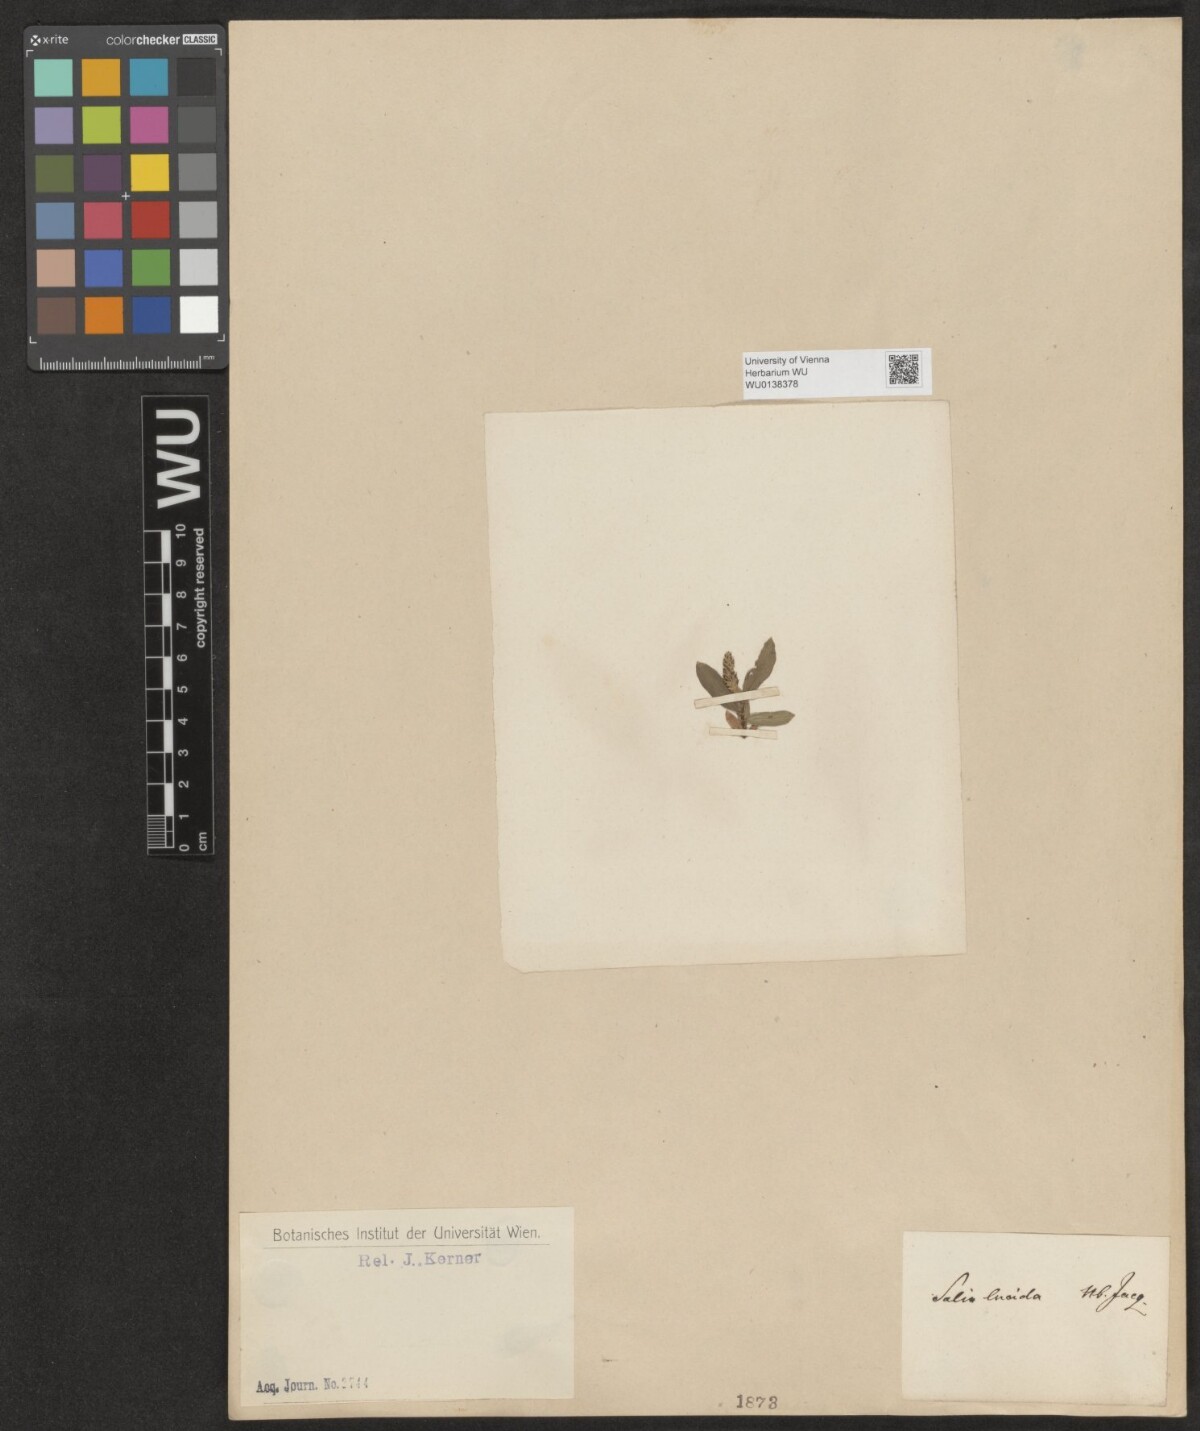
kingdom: Plantae
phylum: Tracheophyta
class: Magnoliopsida
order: Malpighiales
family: Salicaceae
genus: Salix
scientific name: Salix lucida
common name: Shining willow
